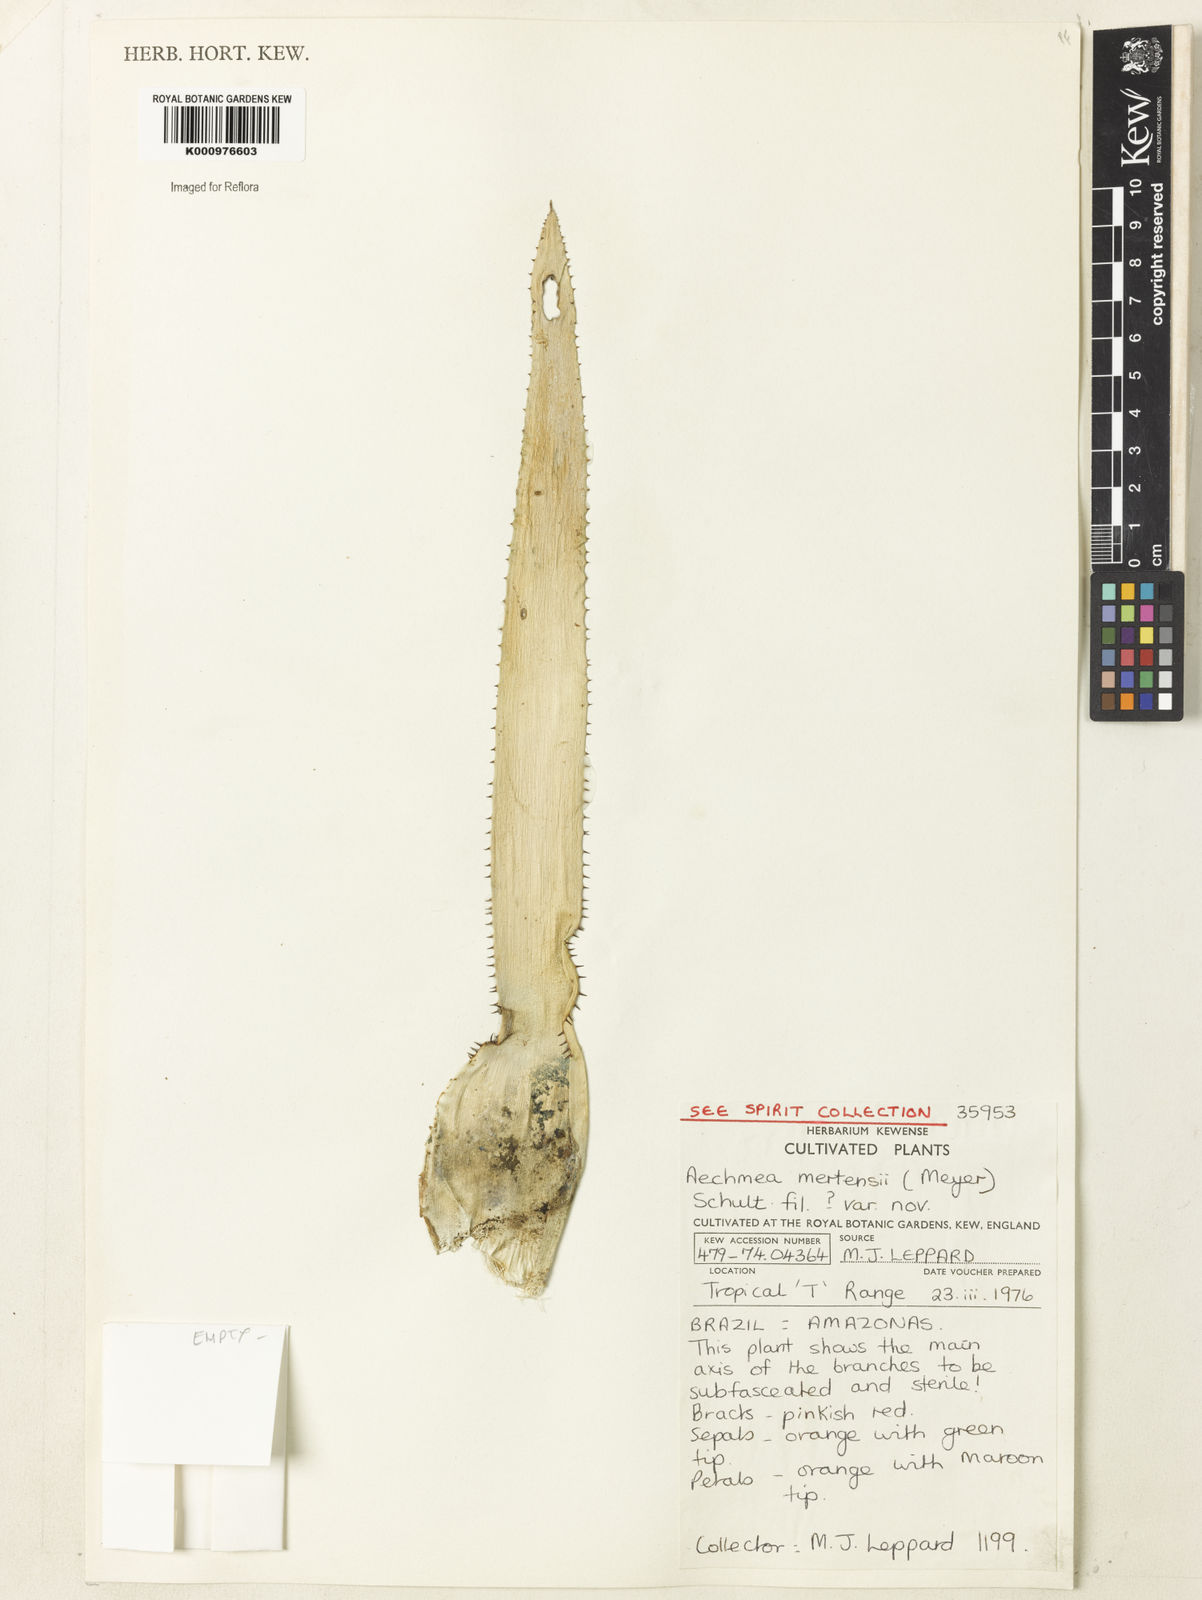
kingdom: Plantae
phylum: Tracheophyta
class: Liliopsida
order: Poales
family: Bromeliaceae
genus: Aechmea
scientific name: Aechmea mertensii
